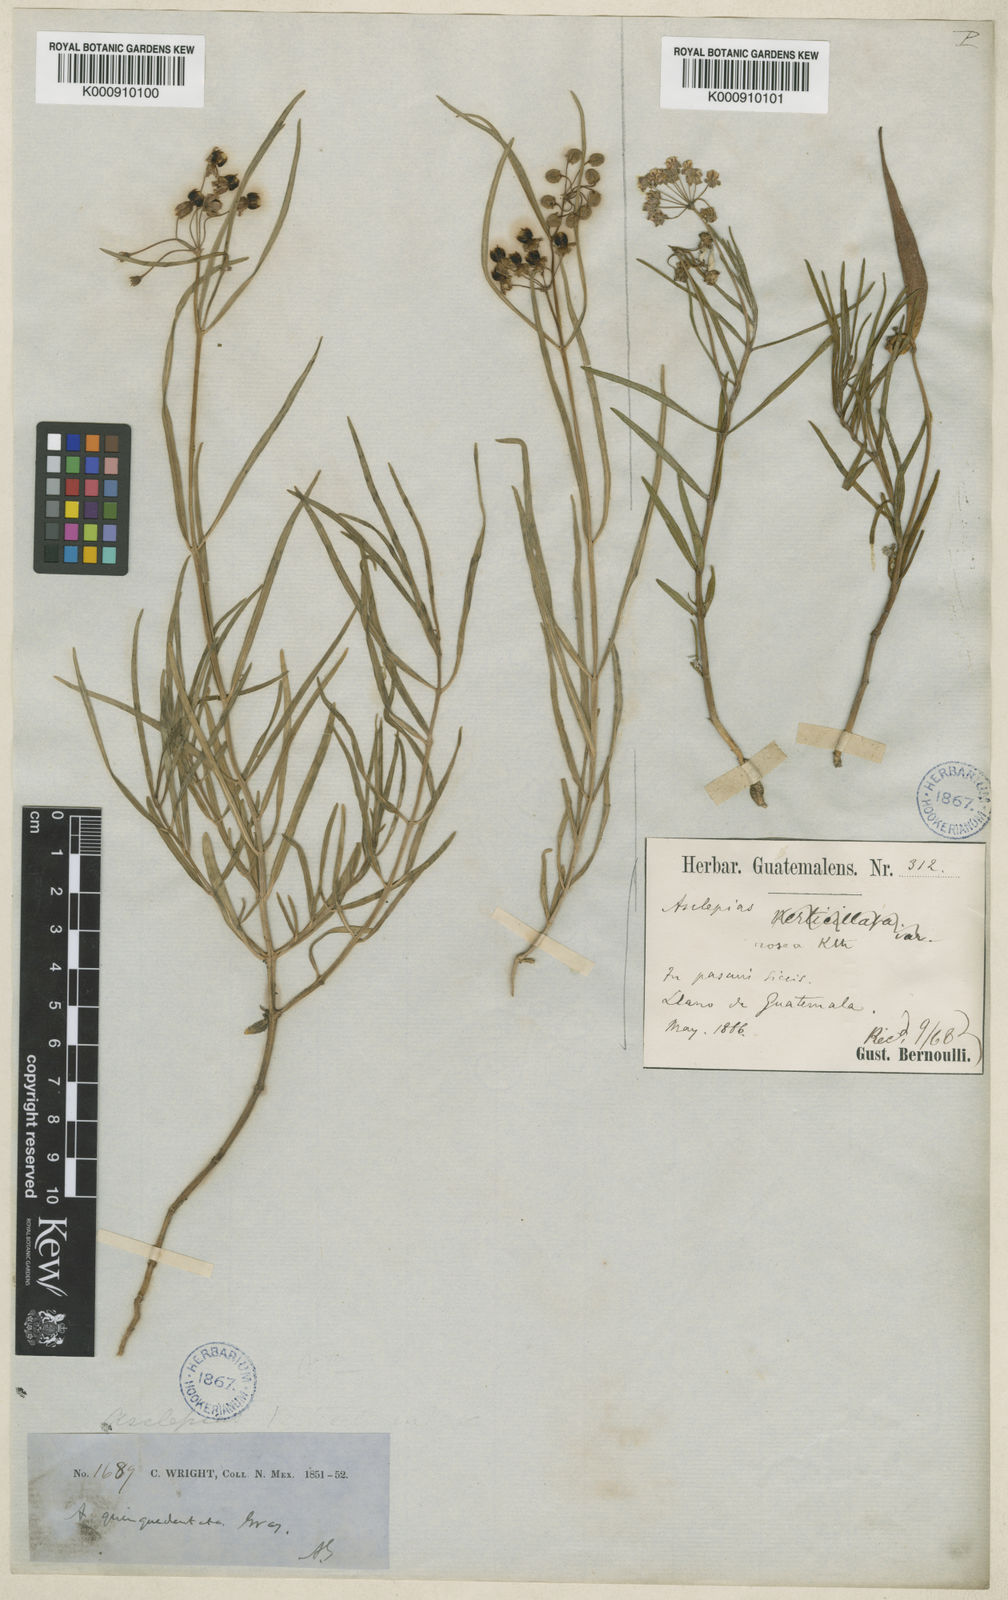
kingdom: Plantae
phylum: Tracheophyta
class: Magnoliopsida
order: Gentianales
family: Apocynaceae
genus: Asclepias
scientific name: Asclepias quinquedentata
